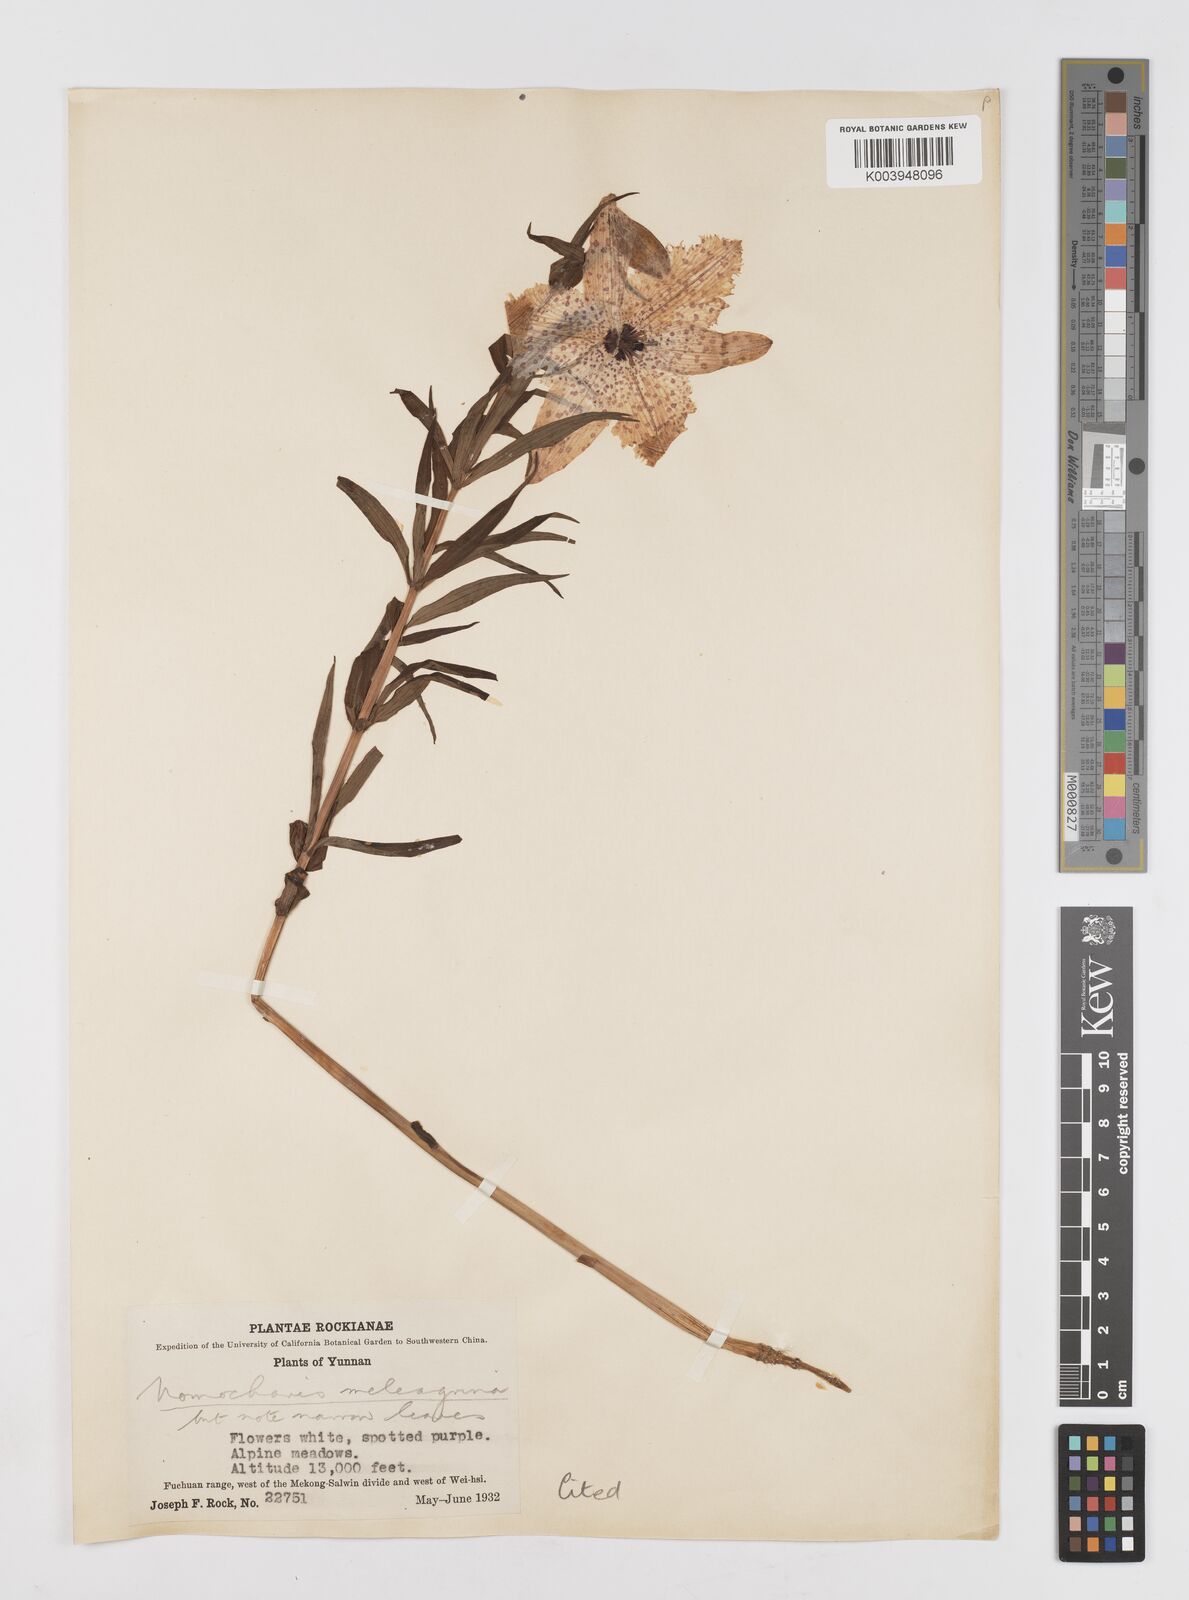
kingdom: Plantae
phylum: Tracheophyta
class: Liliopsida
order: Liliales
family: Liliaceae
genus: Lilium
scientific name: Lilium meleagrina
